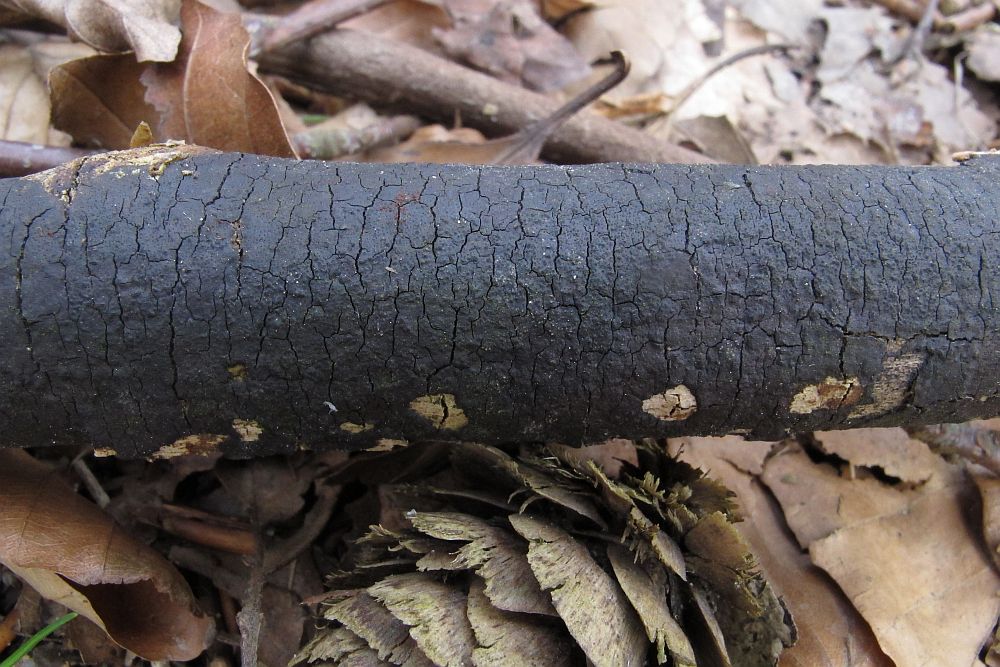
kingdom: Fungi
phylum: Ascomycota
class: Sordariomycetes
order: Hypocreales
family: Nectriaceae
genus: Dialonectria
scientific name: Dialonectria episphaeria
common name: kulskorpe-cinnobersvamp
